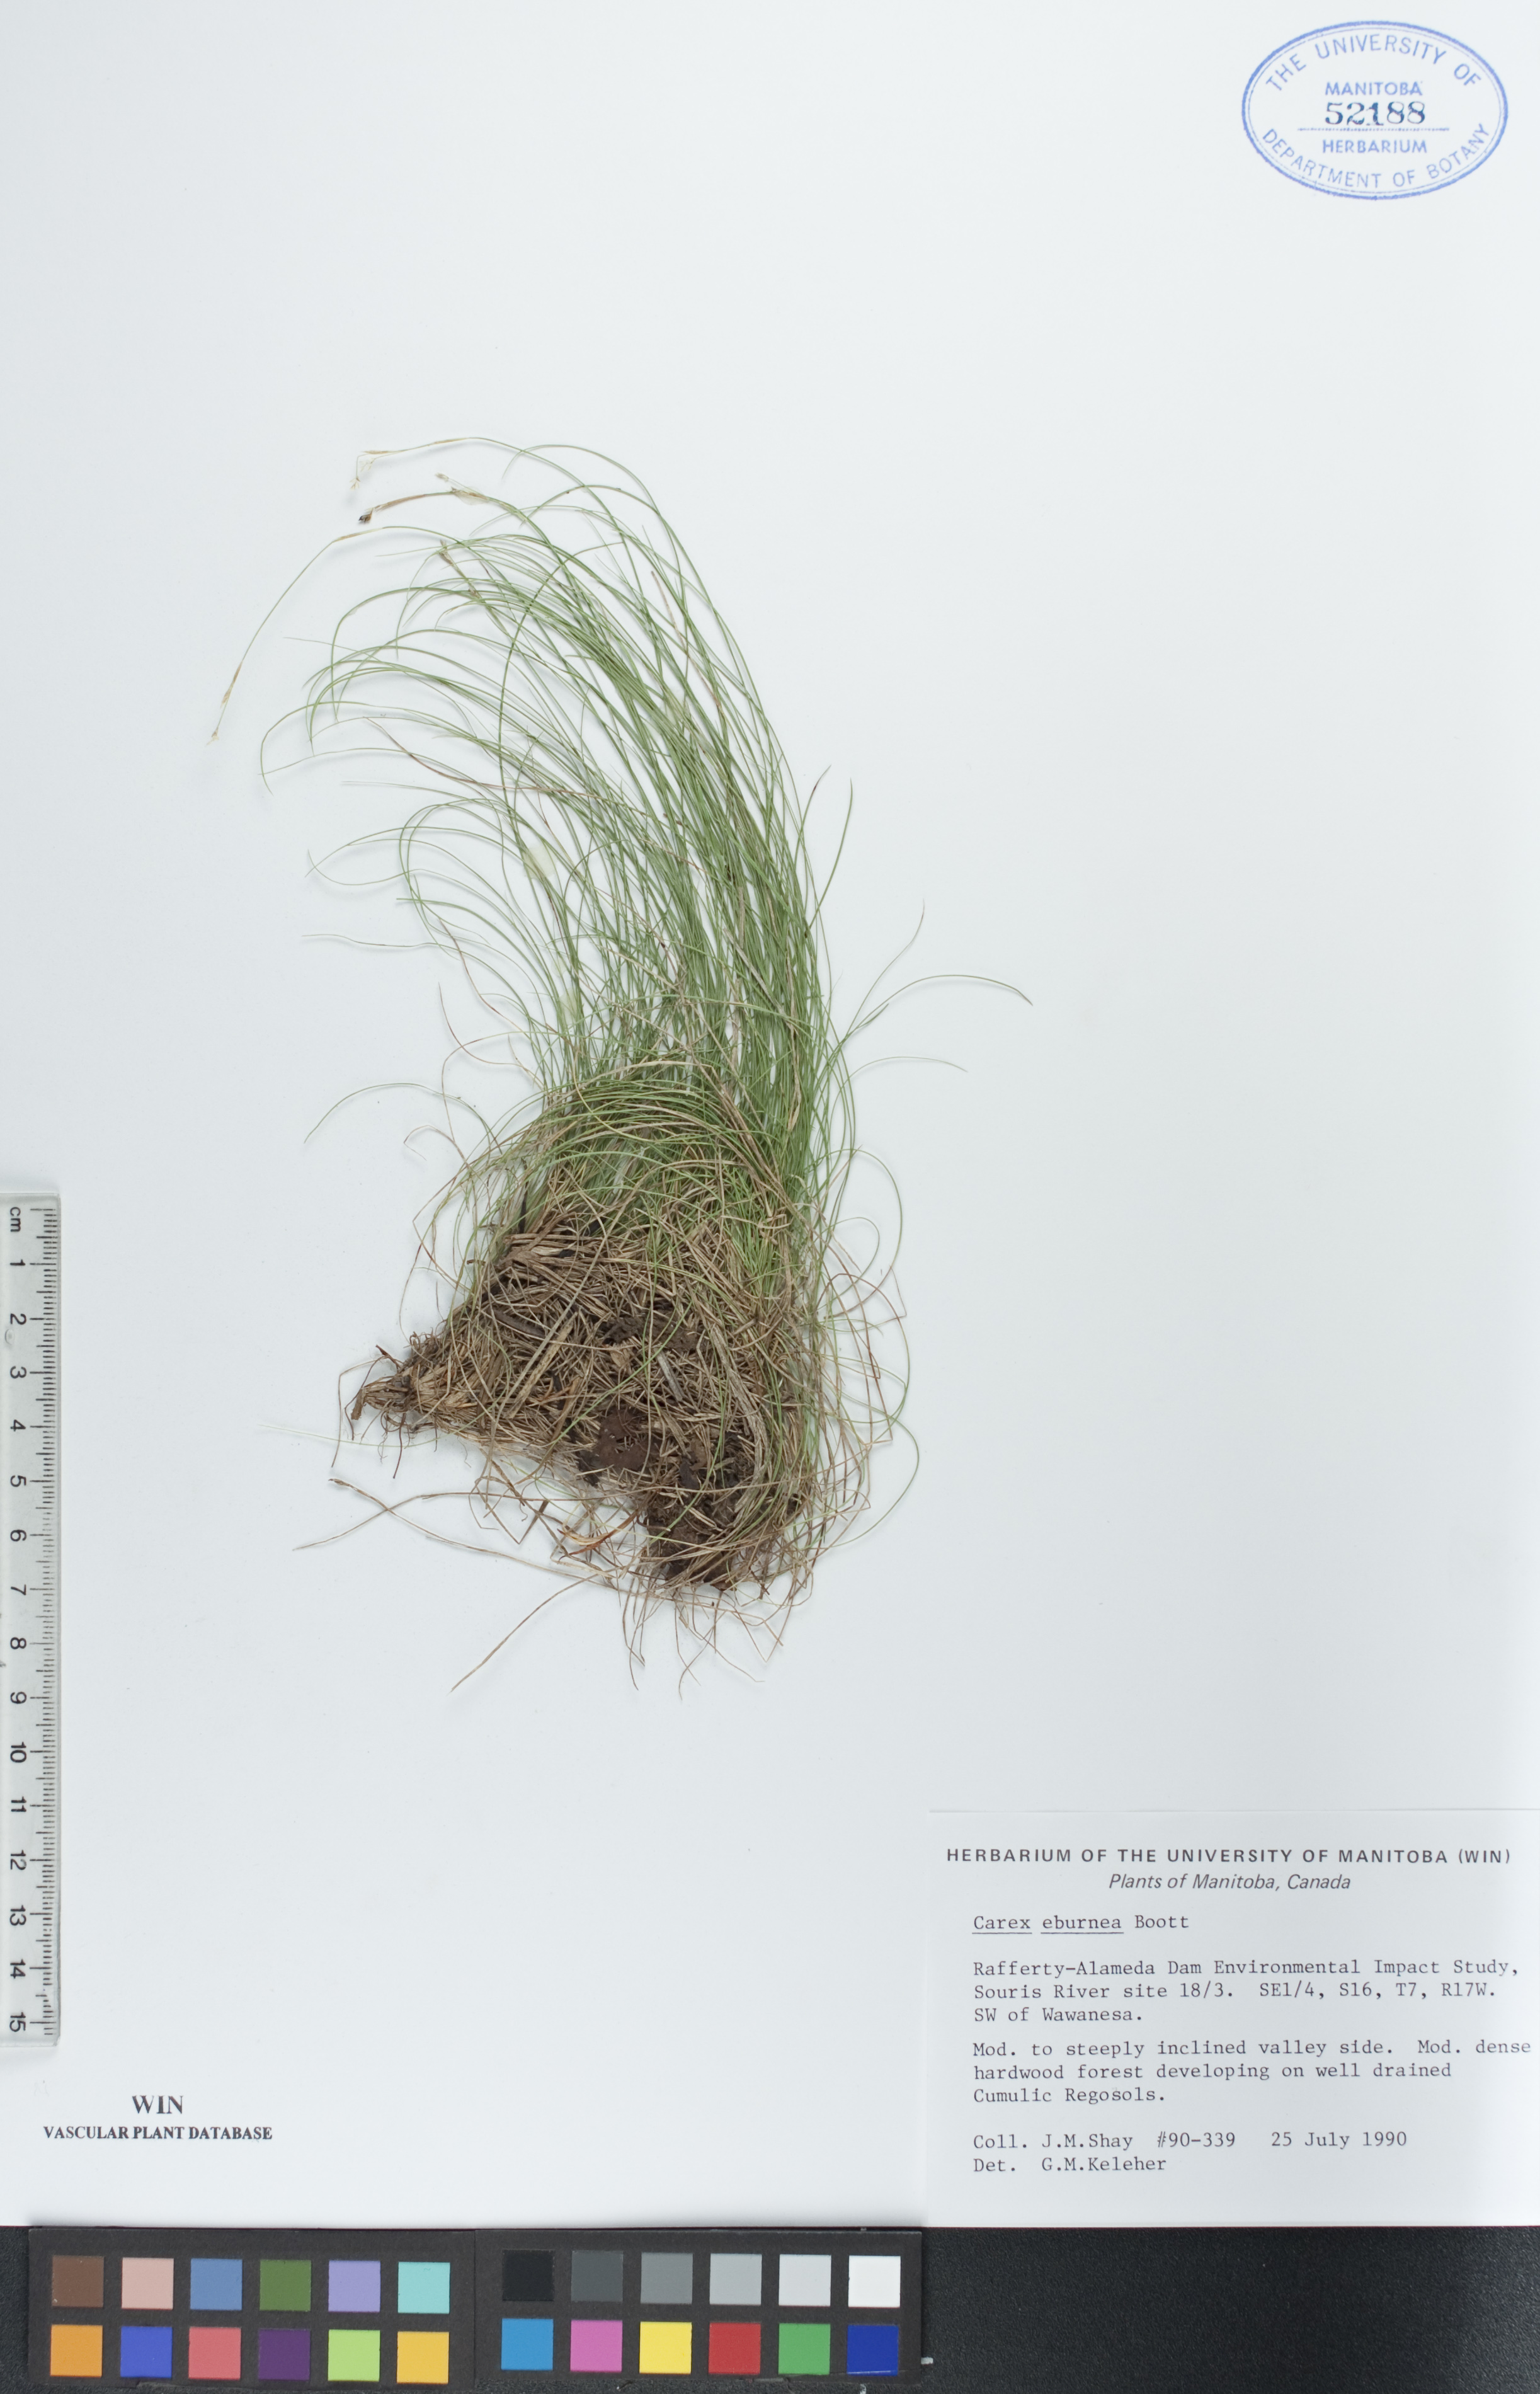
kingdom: Plantae
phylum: Tracheophyta
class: Liliopsida
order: Poales
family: Cyperaceae
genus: Carex
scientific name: Carex eburnea
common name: Bristle-leaved sedge
